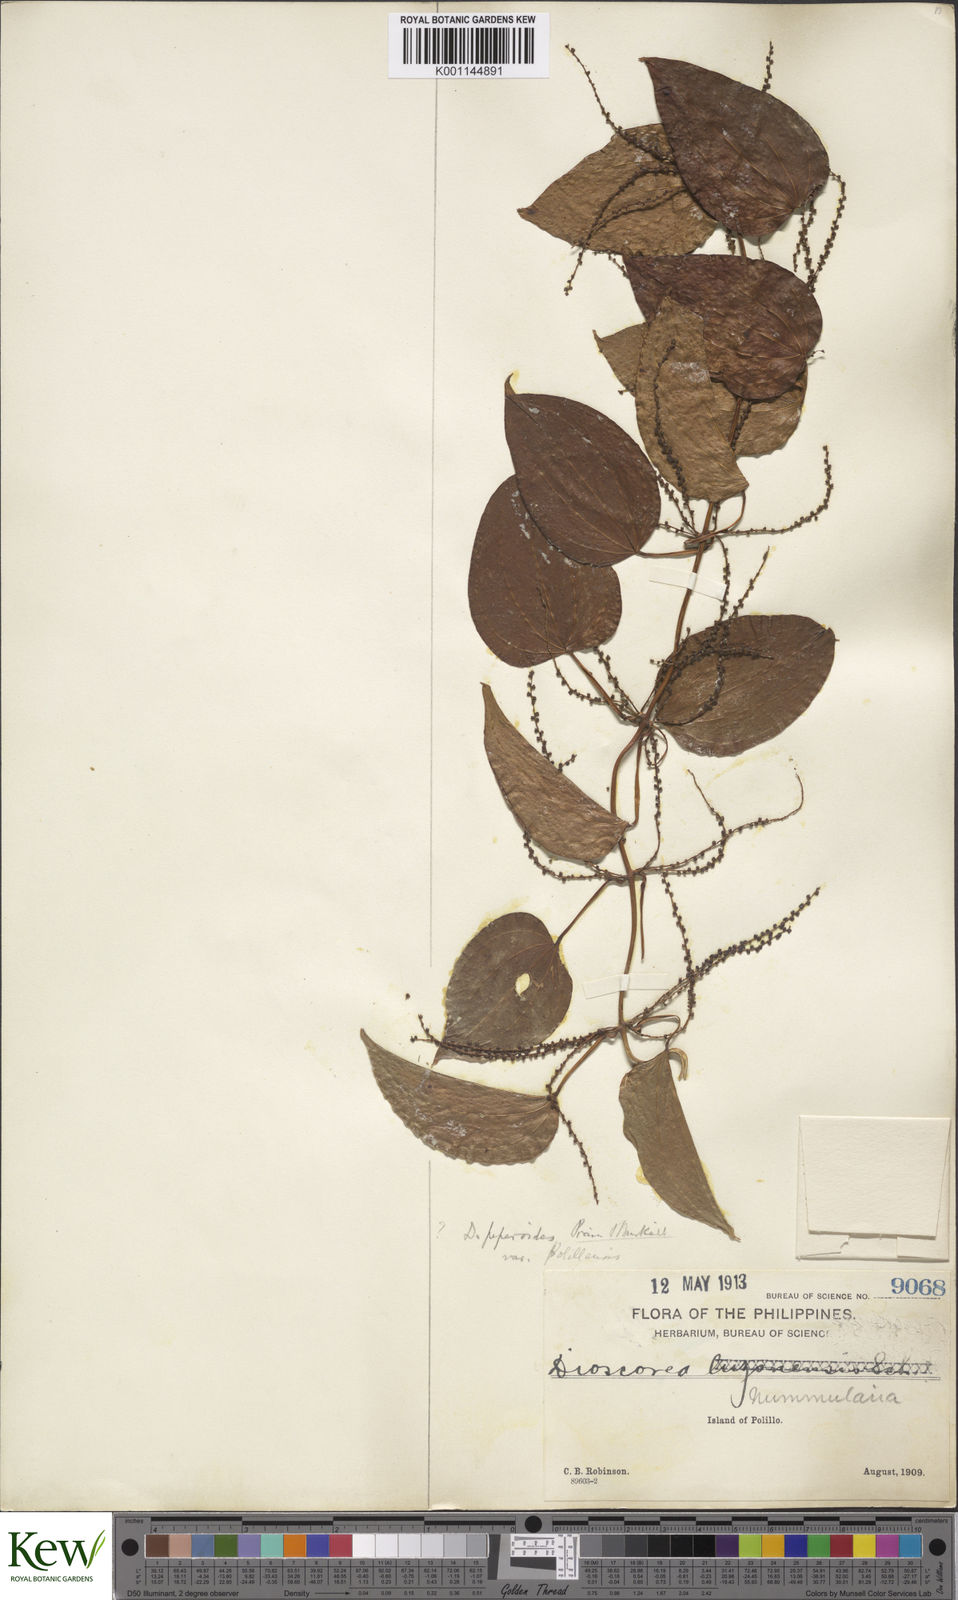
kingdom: Plantae
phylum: Tracheophyta
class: Liliopsida
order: Dioscoreales
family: Dioscoreaceae
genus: Dioscorea
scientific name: Dioscorea nummularia
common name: Pacific yam
